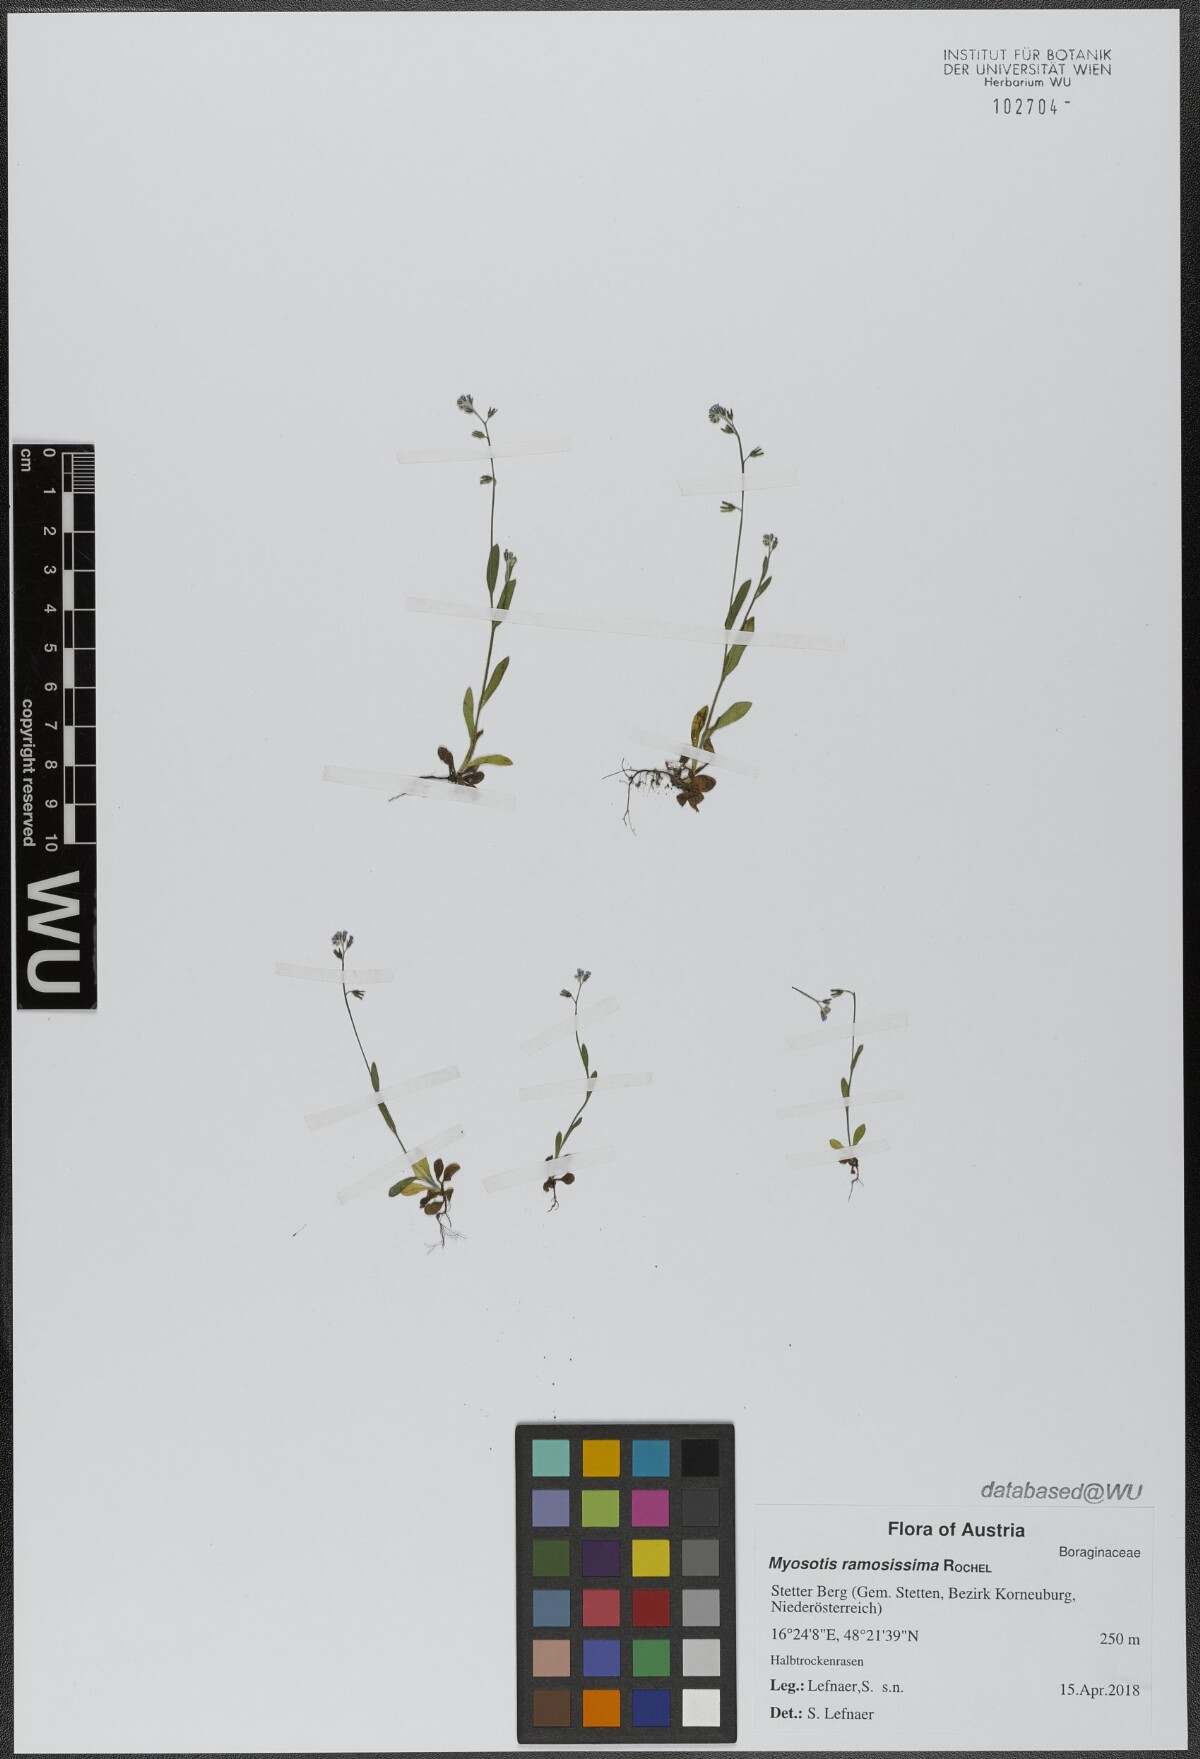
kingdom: Plantae
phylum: Tracheophyta
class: Magnoliopsida
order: Boraginales
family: Boraginaceae
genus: Myosotis
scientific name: Myosotis ramosissima
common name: Early forget-me-not
